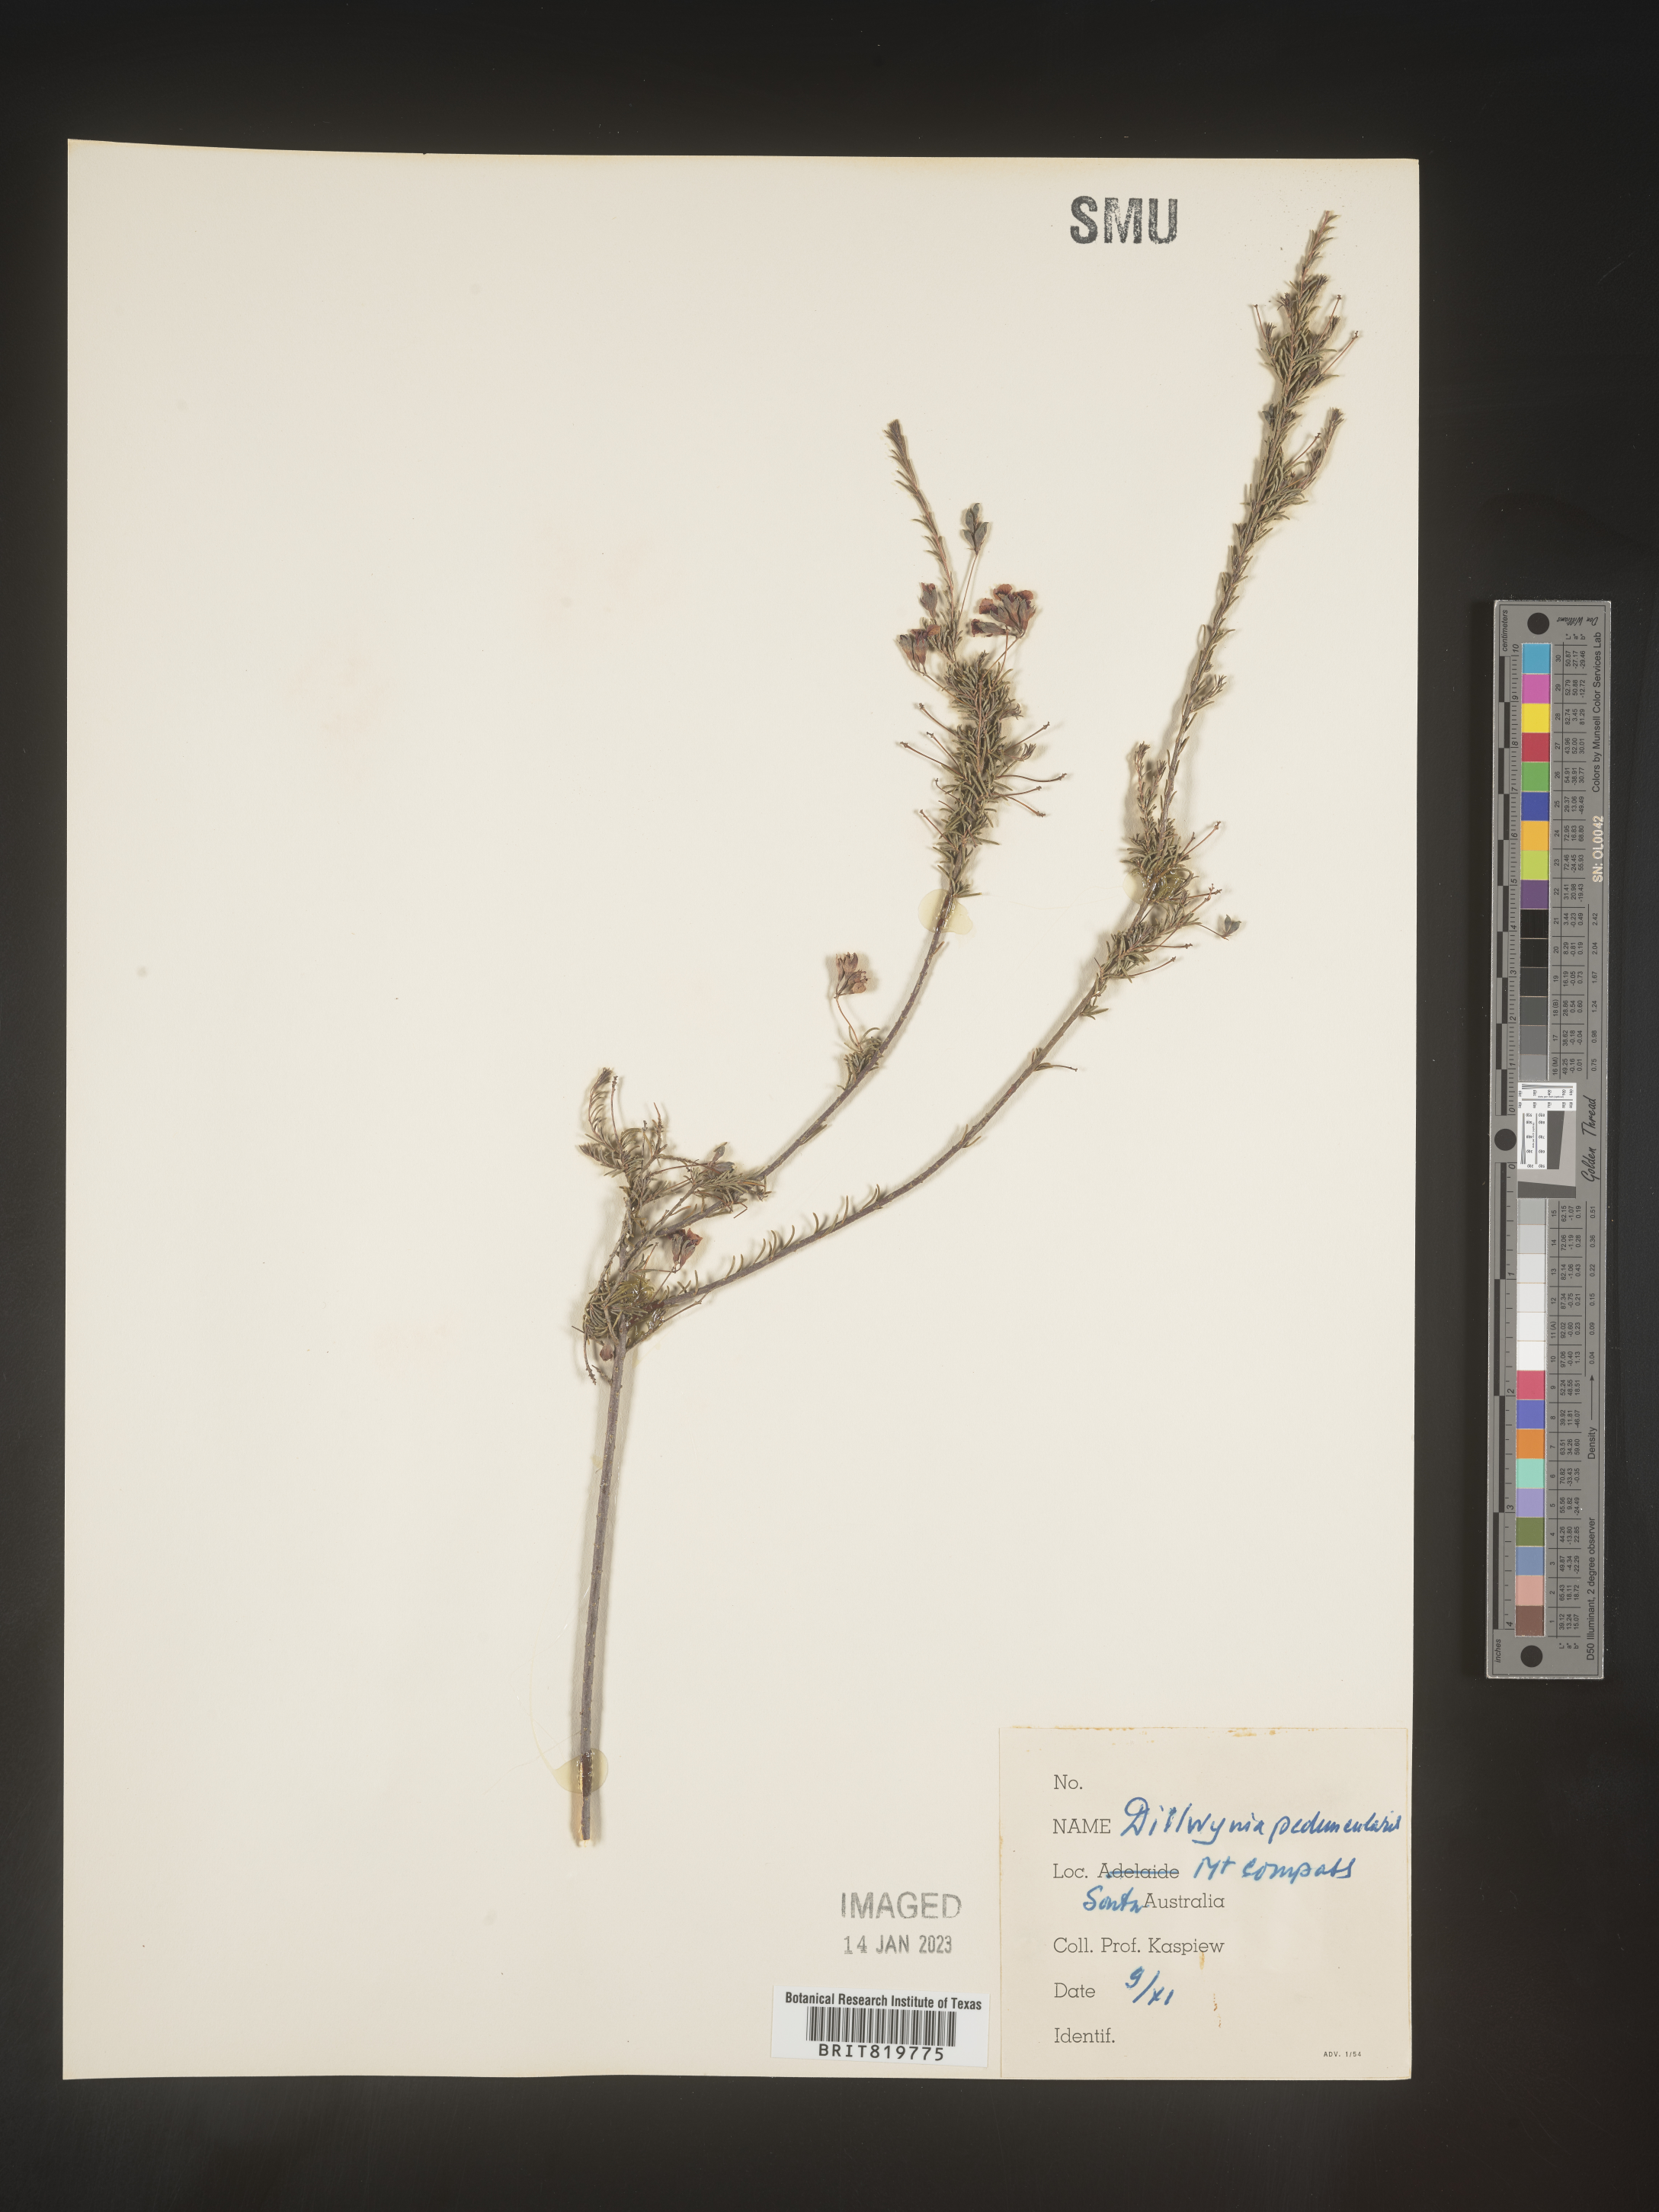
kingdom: Plantae
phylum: Tracheophyta
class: Magnoliopsida
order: Fabales
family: Fabaceae
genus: Dillwynia
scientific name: Dillwynia
